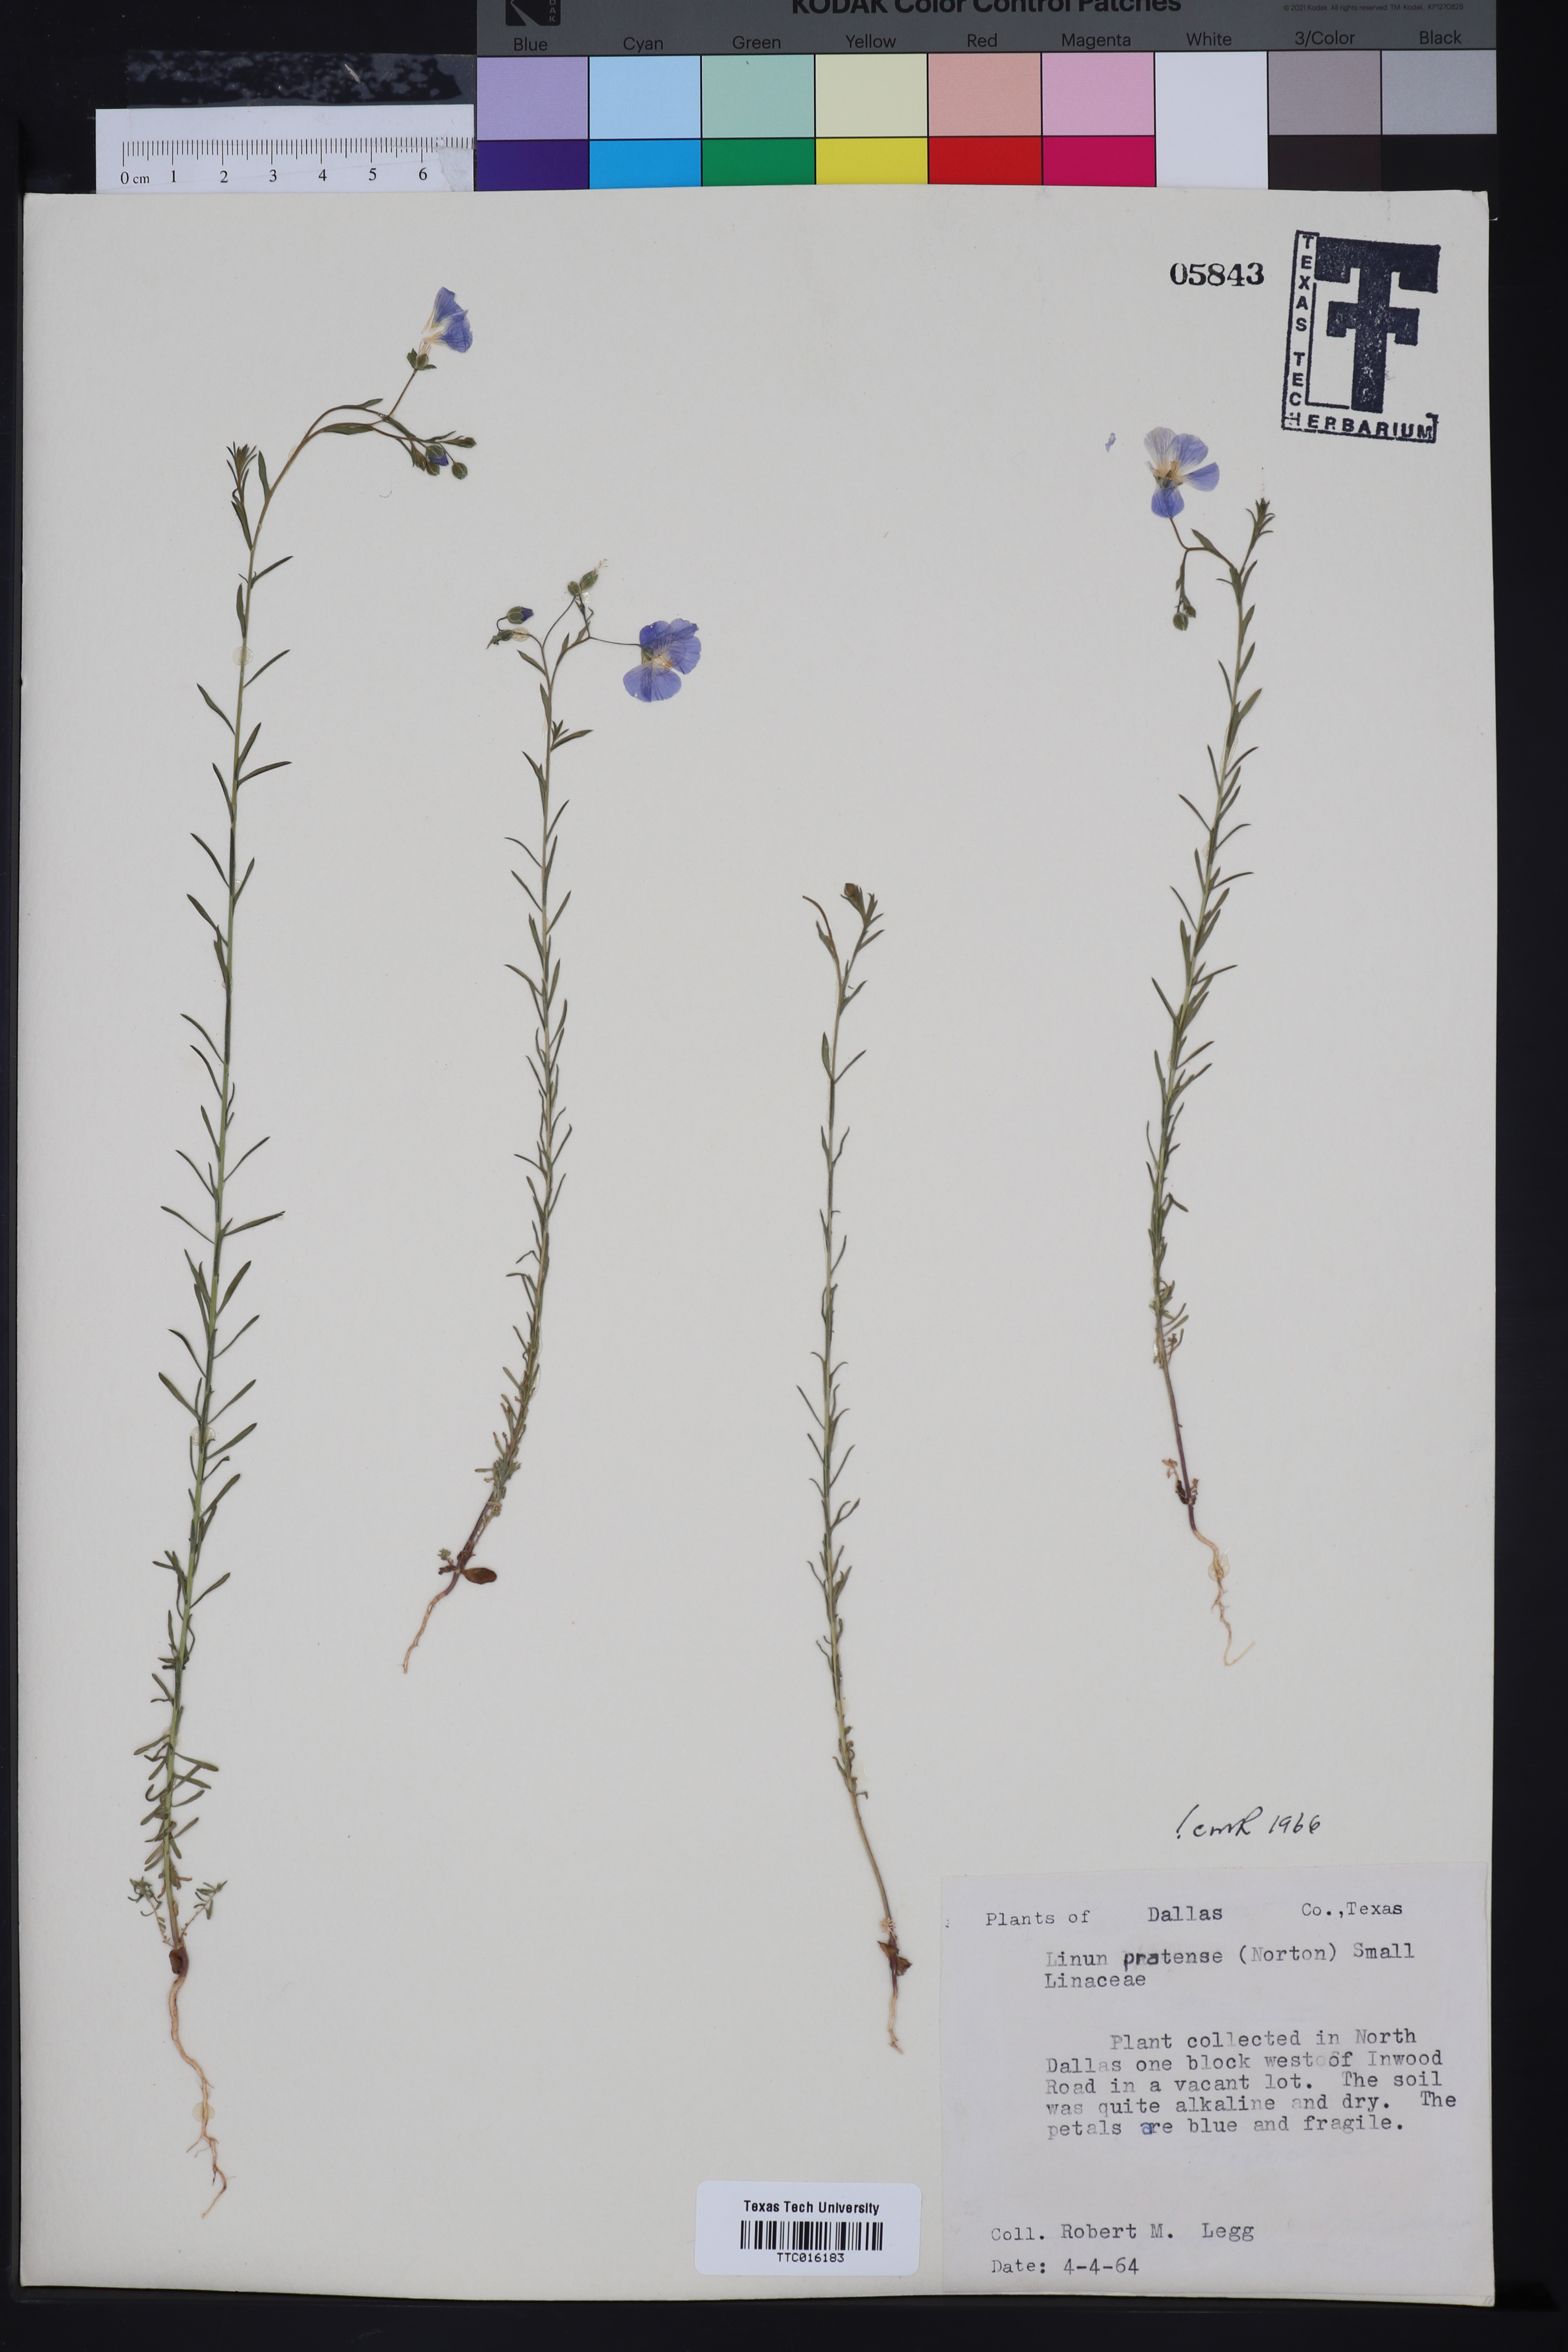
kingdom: Plantae
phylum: Tracheophyta
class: Magnoliopsida
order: Malpighiales
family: Linaceae
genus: Linum
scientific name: Linum pratense
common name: Norton's flax
